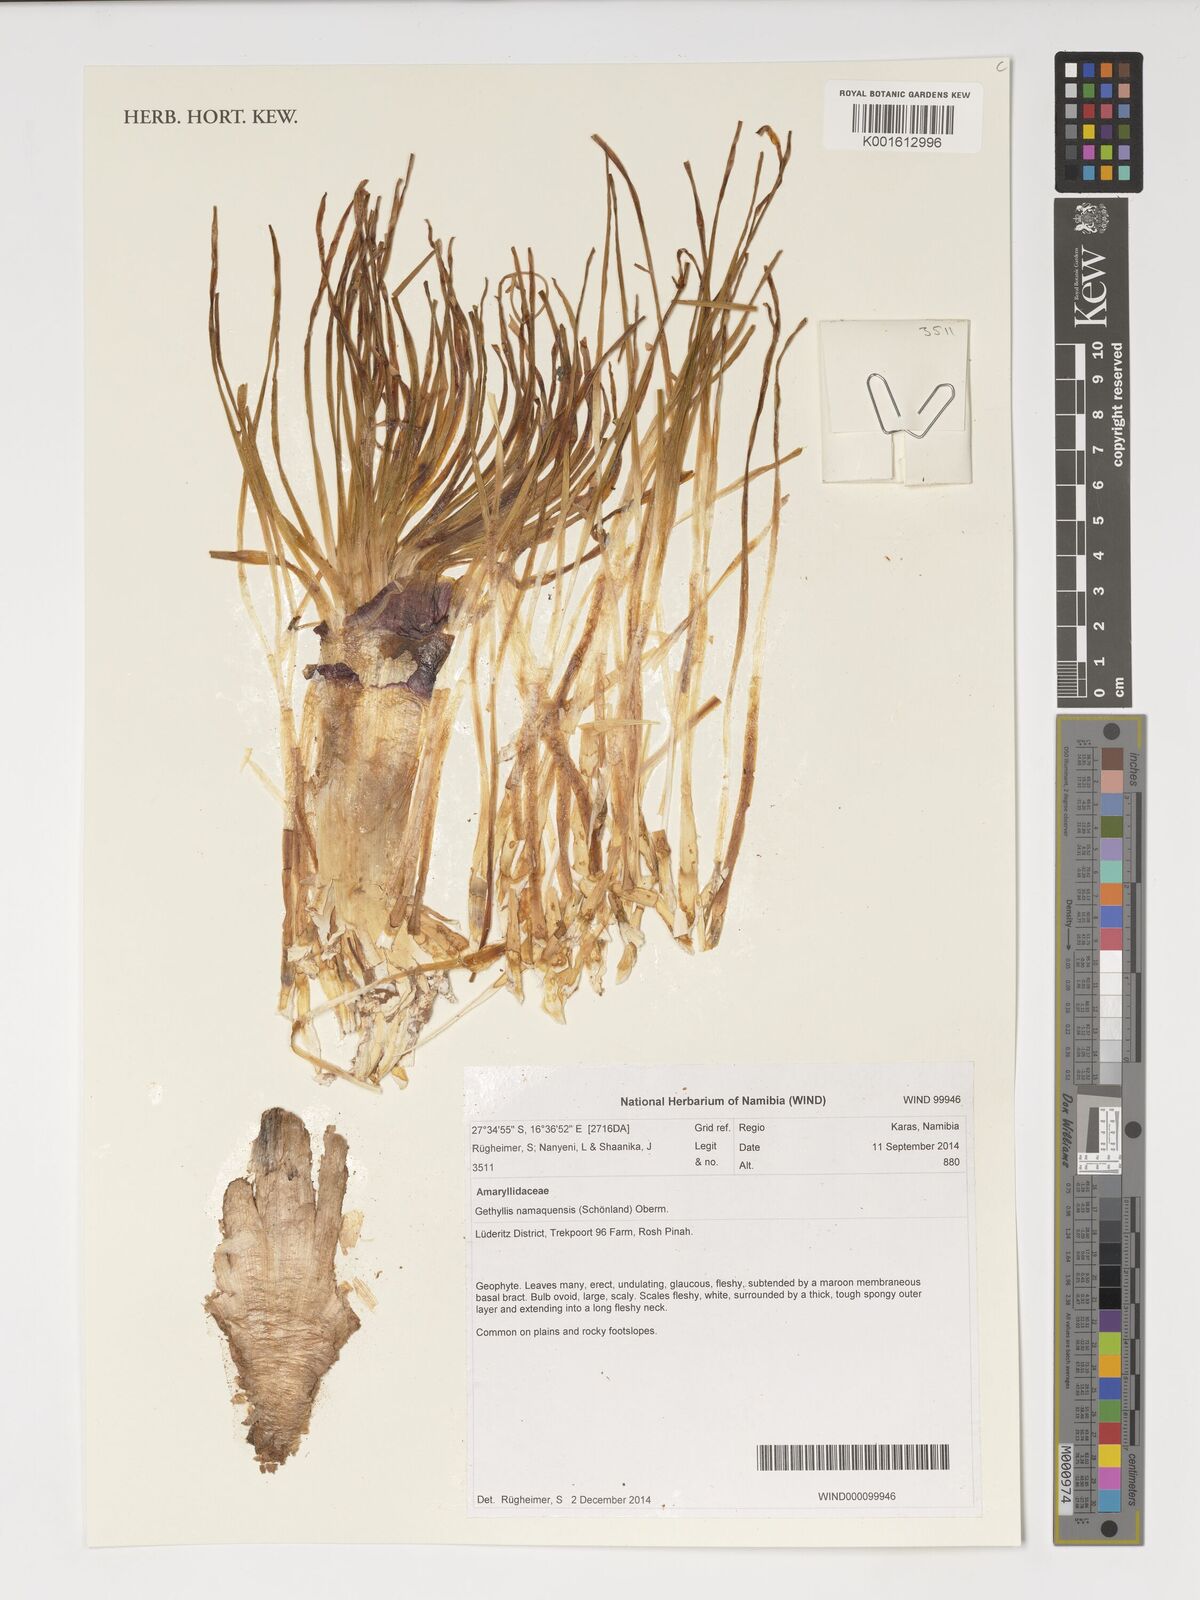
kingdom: Plantae
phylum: Tracheophyta
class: Liliopsida
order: Asparagales
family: Amaryllidaceae
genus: Gethyllis
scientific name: Gethyllis namaquensis
